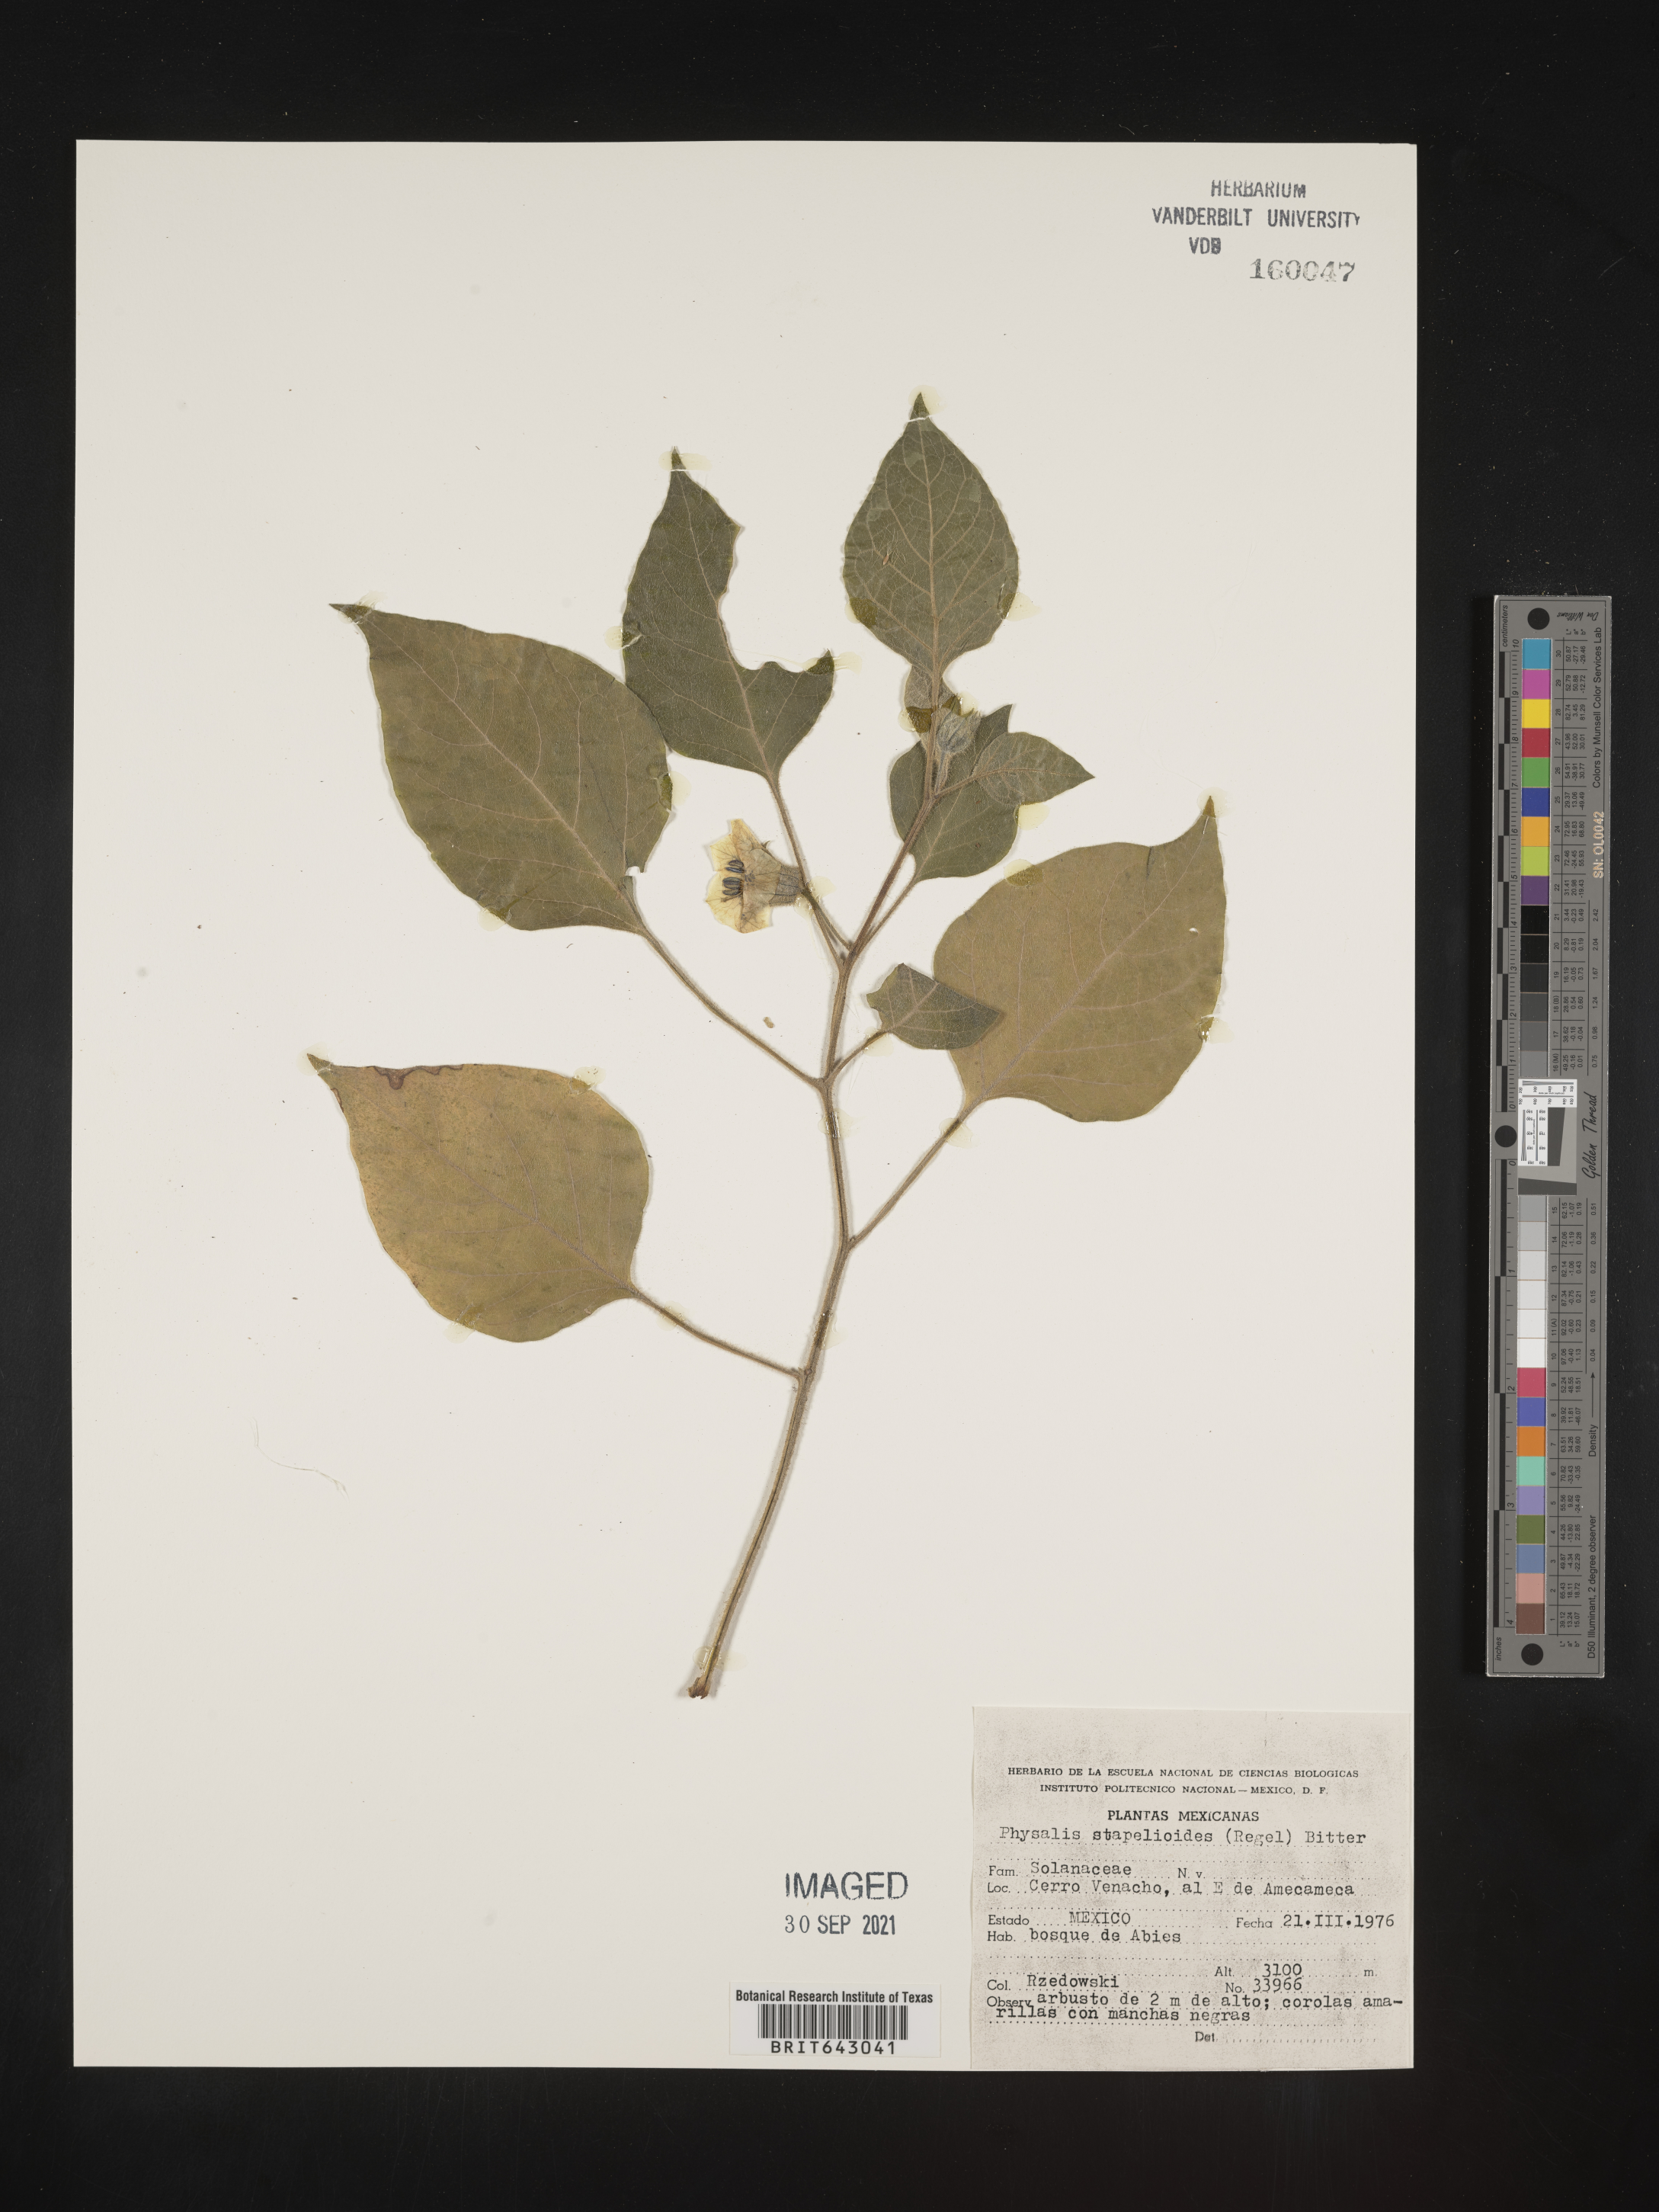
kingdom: Plantae
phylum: Tracheophyta
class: Magnoliopsida
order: Solanales
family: Solanaceae
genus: Physalis
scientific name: Physalis
